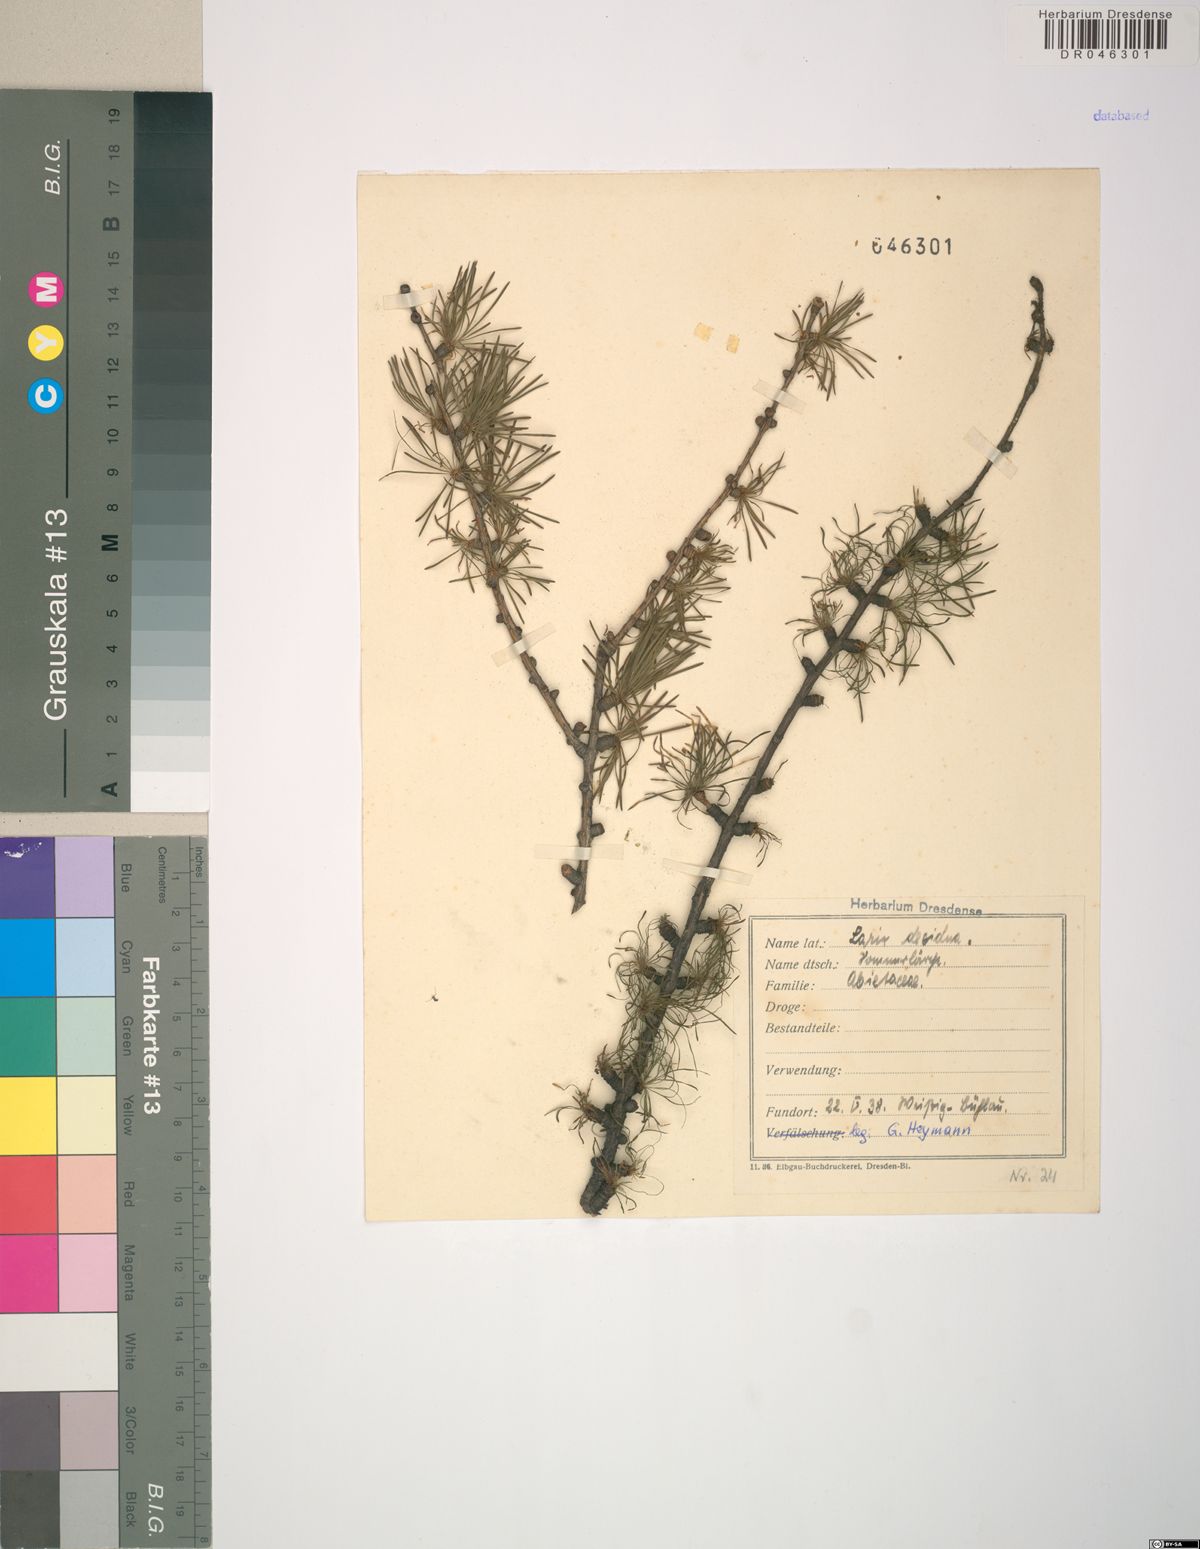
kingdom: Plantae
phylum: Tracheophyta
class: Pinopsida
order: Pinales
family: Pinaceae
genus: Larix
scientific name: Larix decidua
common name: European larch
